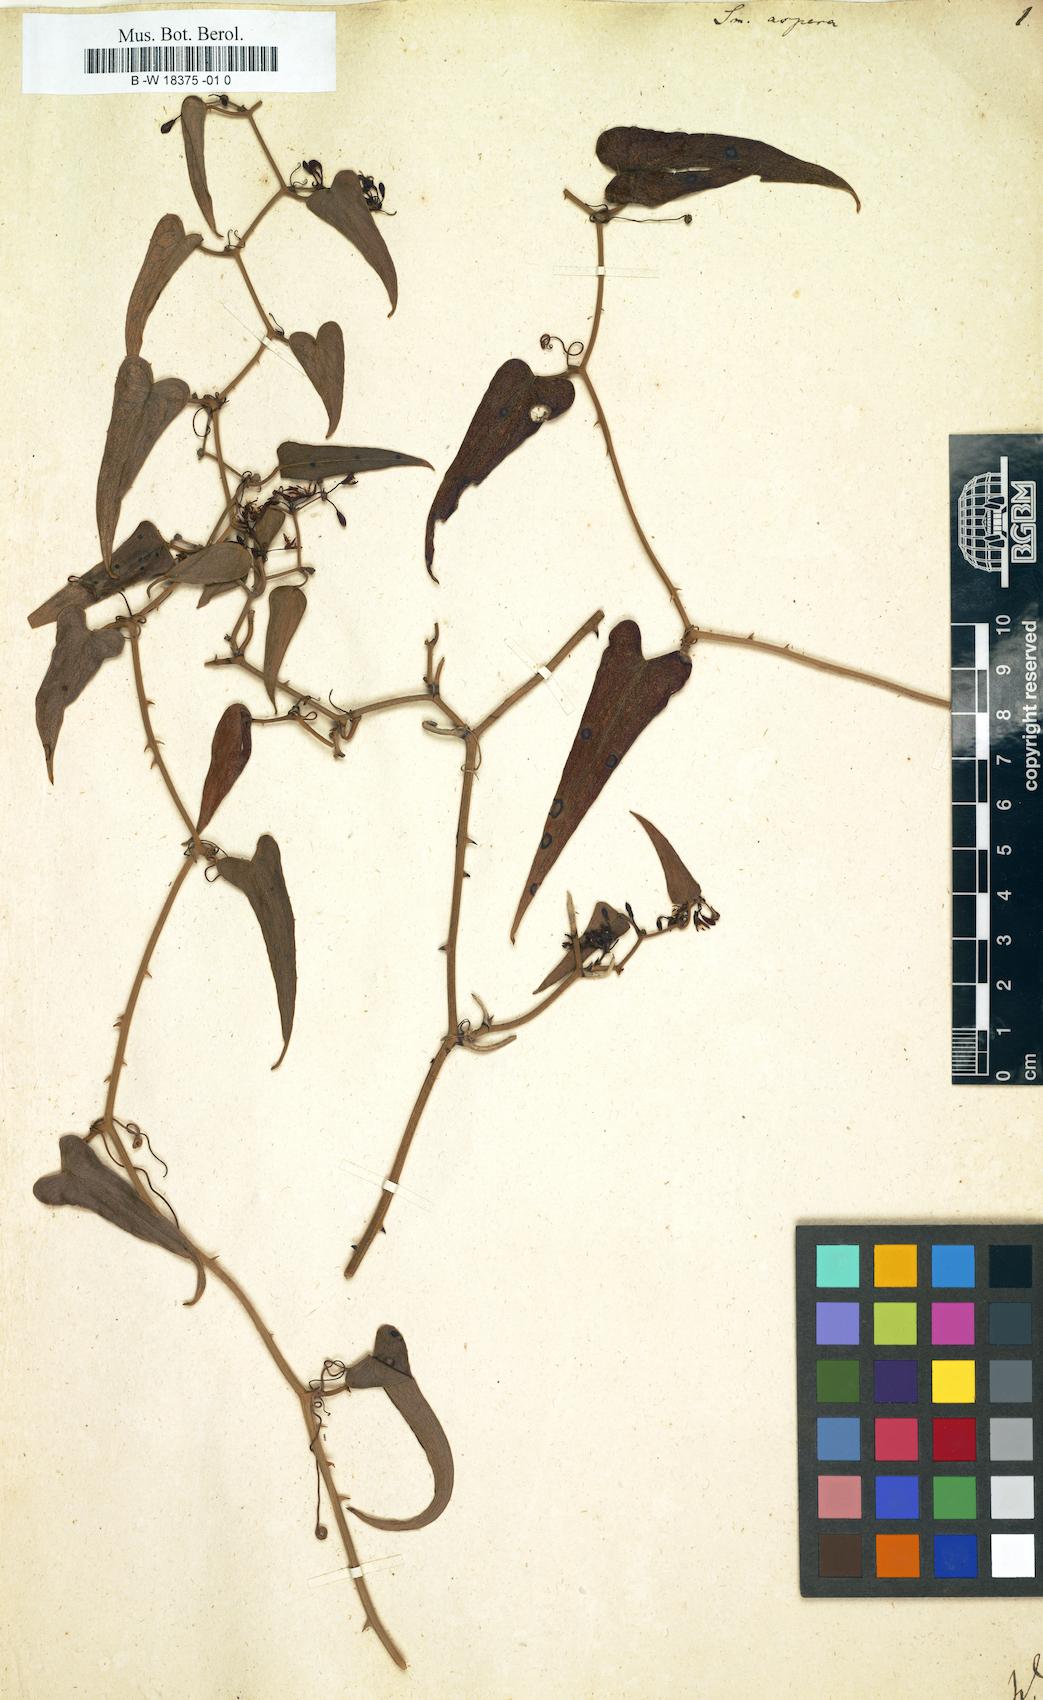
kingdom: Plantae
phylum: Tracheophyta
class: Liliopsida
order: Liliales
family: Smilacaceae
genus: Smilax
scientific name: Smilax aspera
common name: Common smilax
